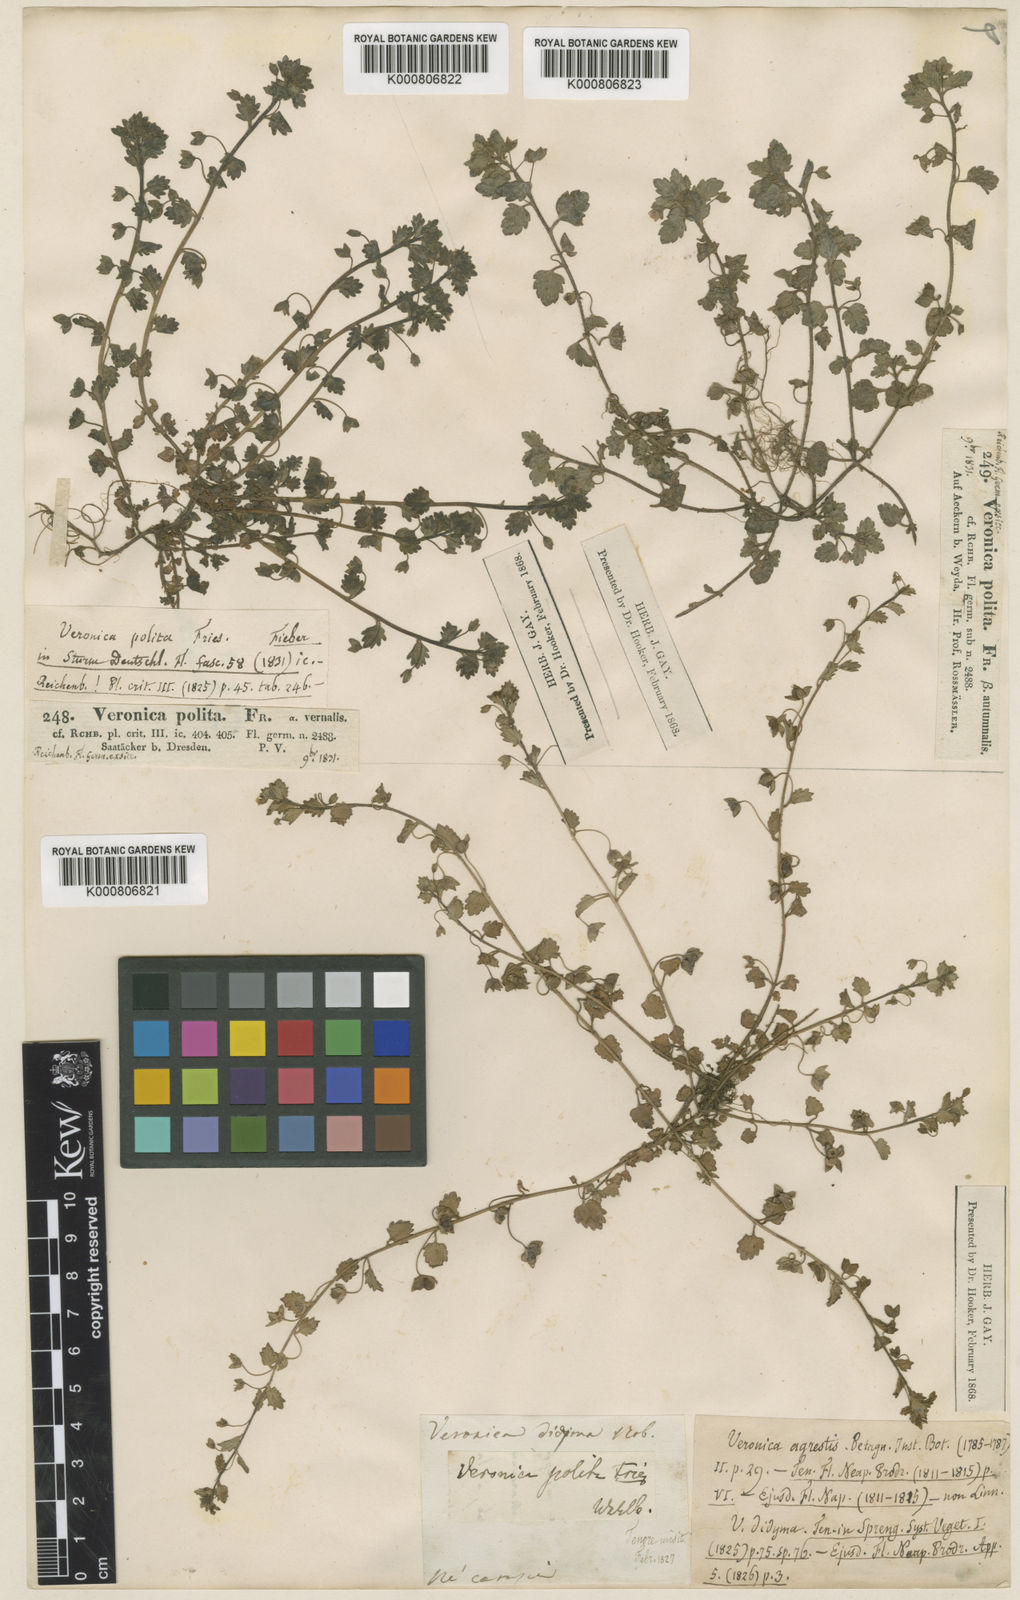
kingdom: Plantae
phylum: Tracheophyta
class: Magnoliopsida
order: Lamiales
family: Plantaginaceae
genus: Veronica
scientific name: Veronica polita
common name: Grey field-speedwell
